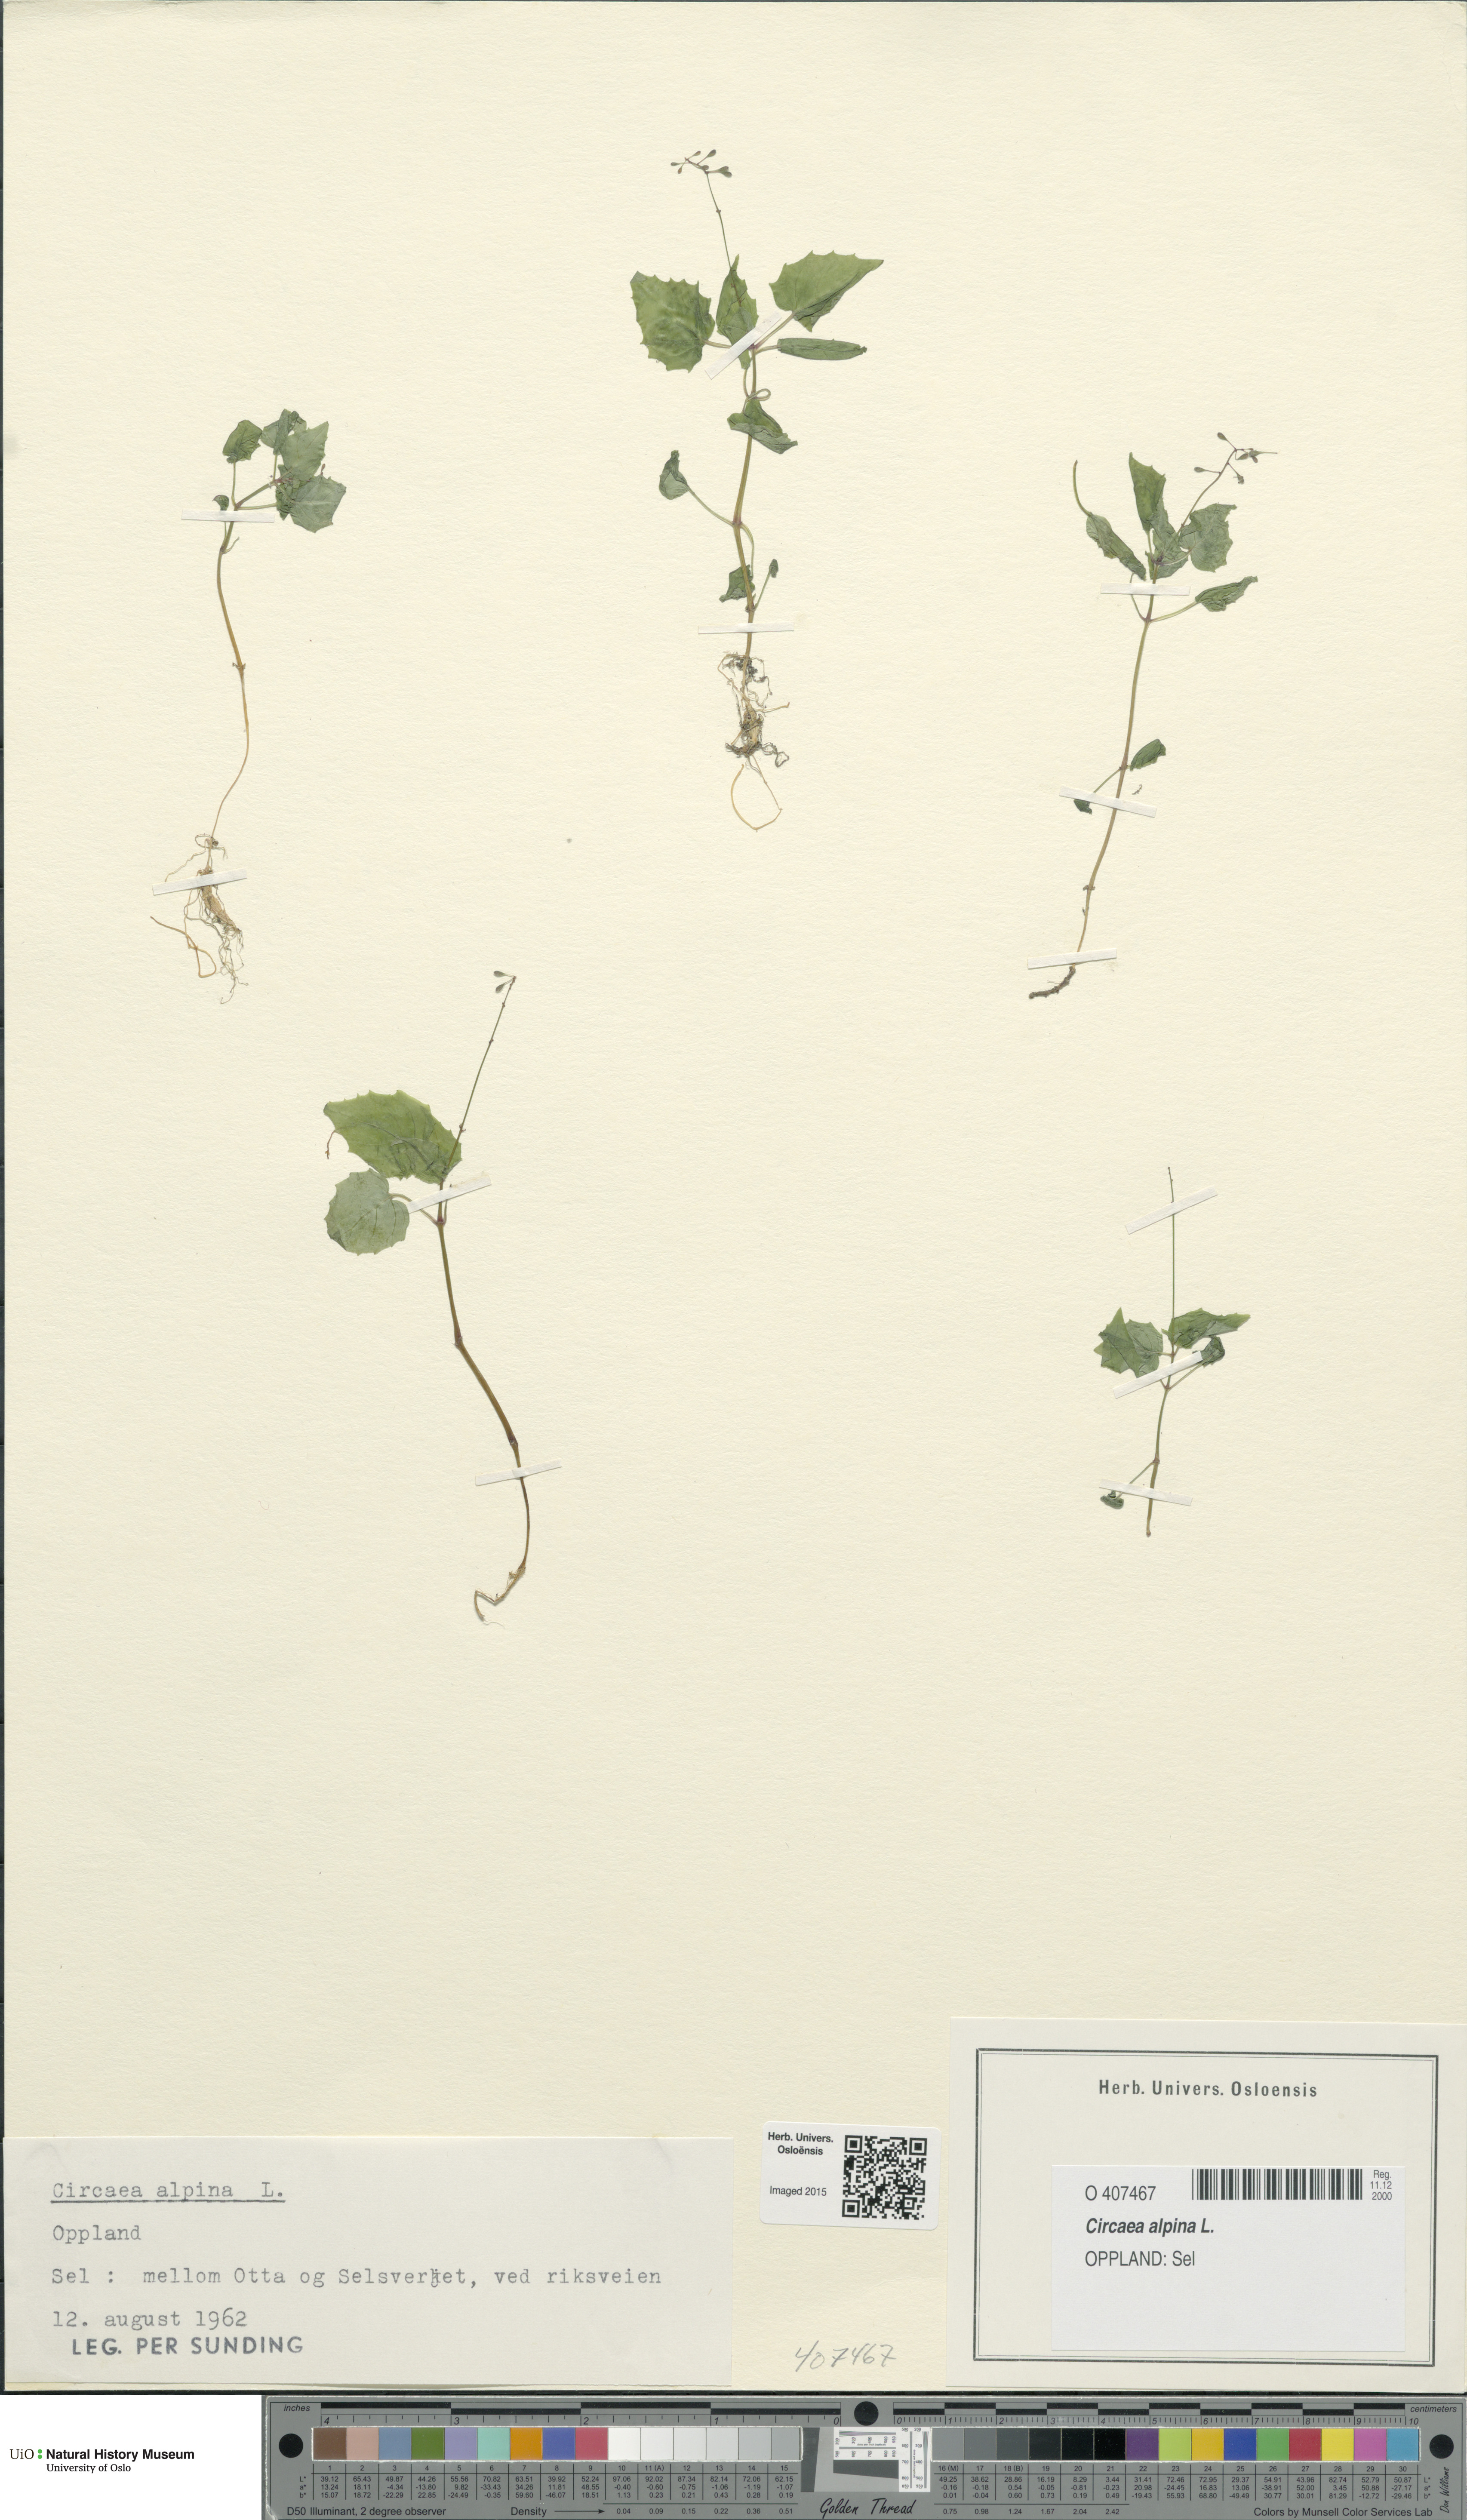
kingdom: Plantae
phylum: Tracheophyta
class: Magnoliopsida
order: Myrtales
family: Onagraceae
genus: Circaea
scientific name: Circaea alpina
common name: Alpine enchanter's-nightshade
